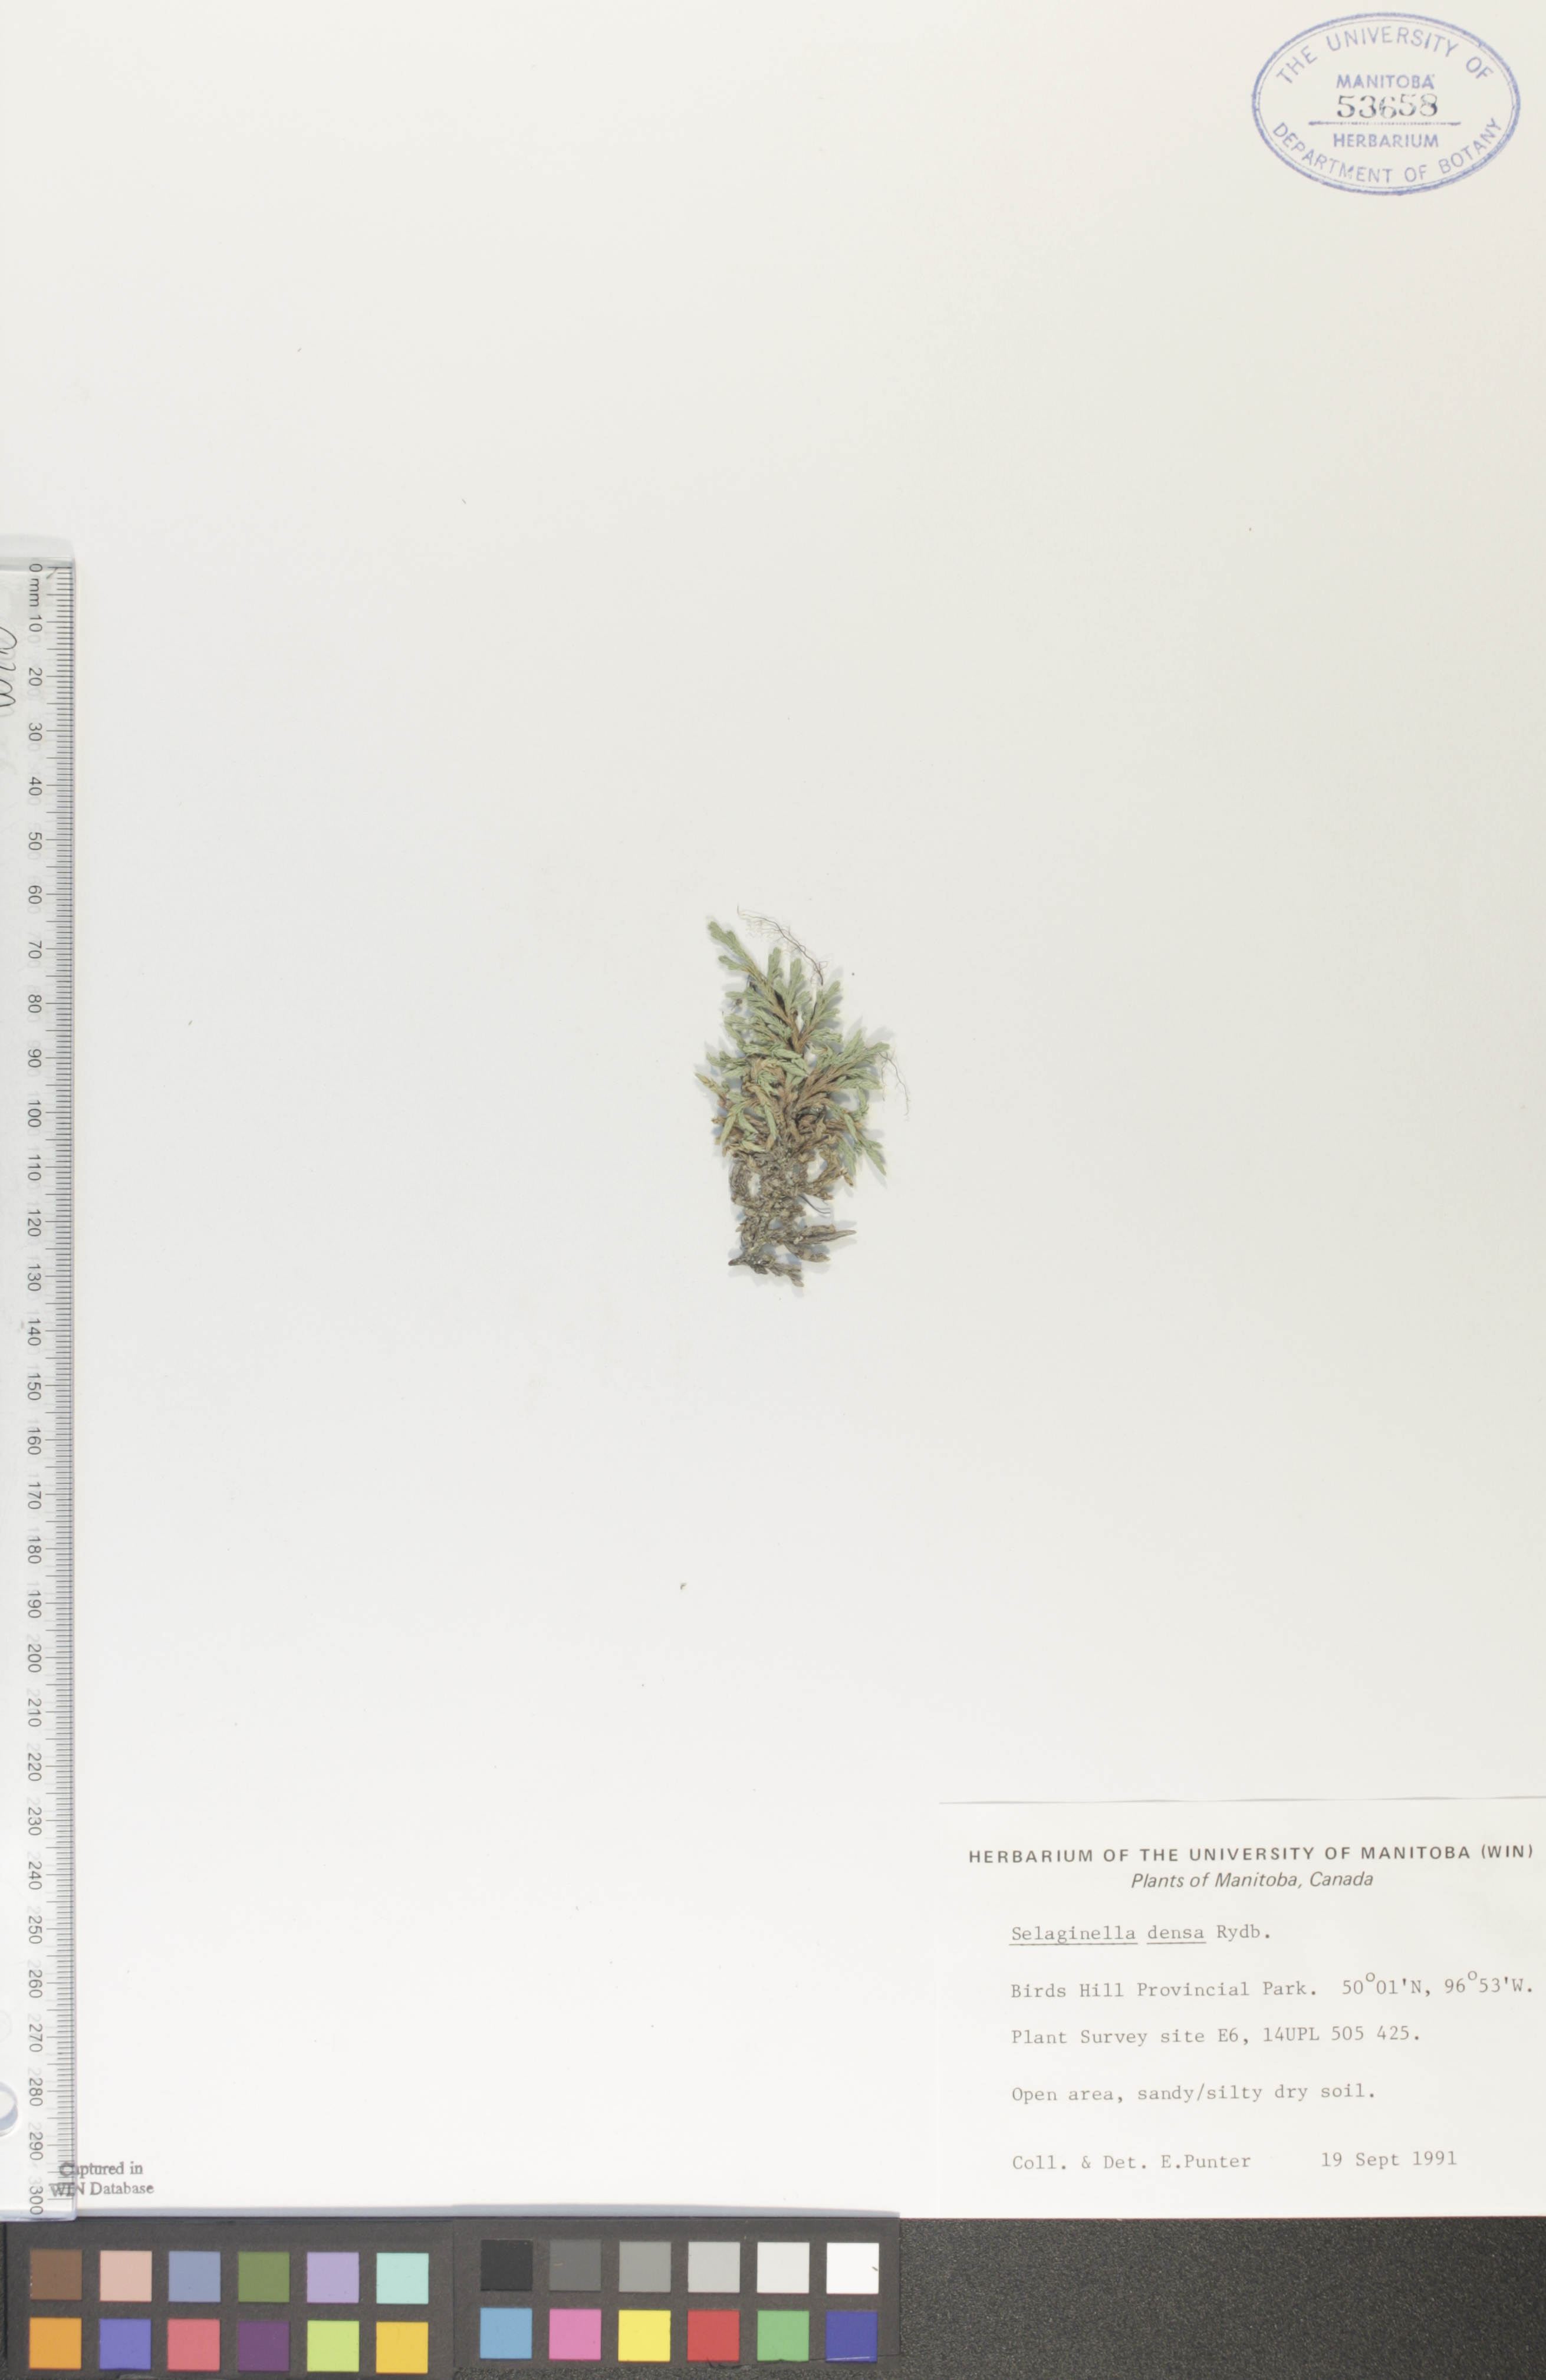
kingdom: Plantae
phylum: Tracheophyta
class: Lycopodiopsida
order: Selaginellales
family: Selaginellaceae
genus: Selaginella
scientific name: Selaginella densa
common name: Mountain spike-moss
